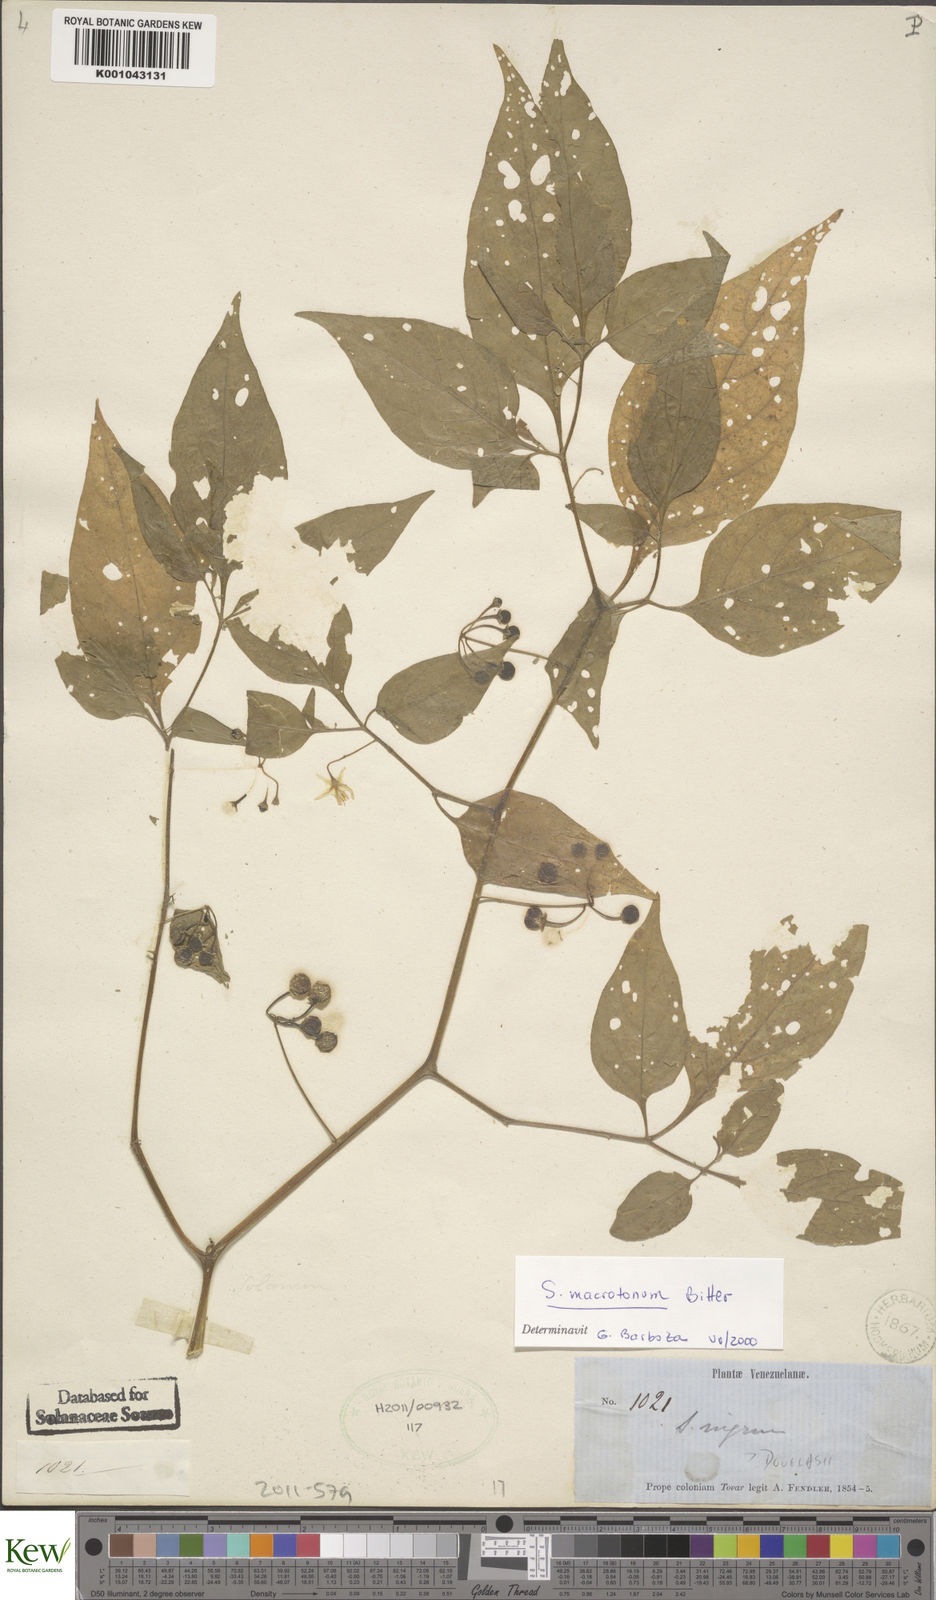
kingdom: Plantae
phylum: Tracheophyta
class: Magnoliopsida
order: Solanales
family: Solanaceae
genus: Solanum
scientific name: Solanum nigrescens
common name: Divine nightshade
